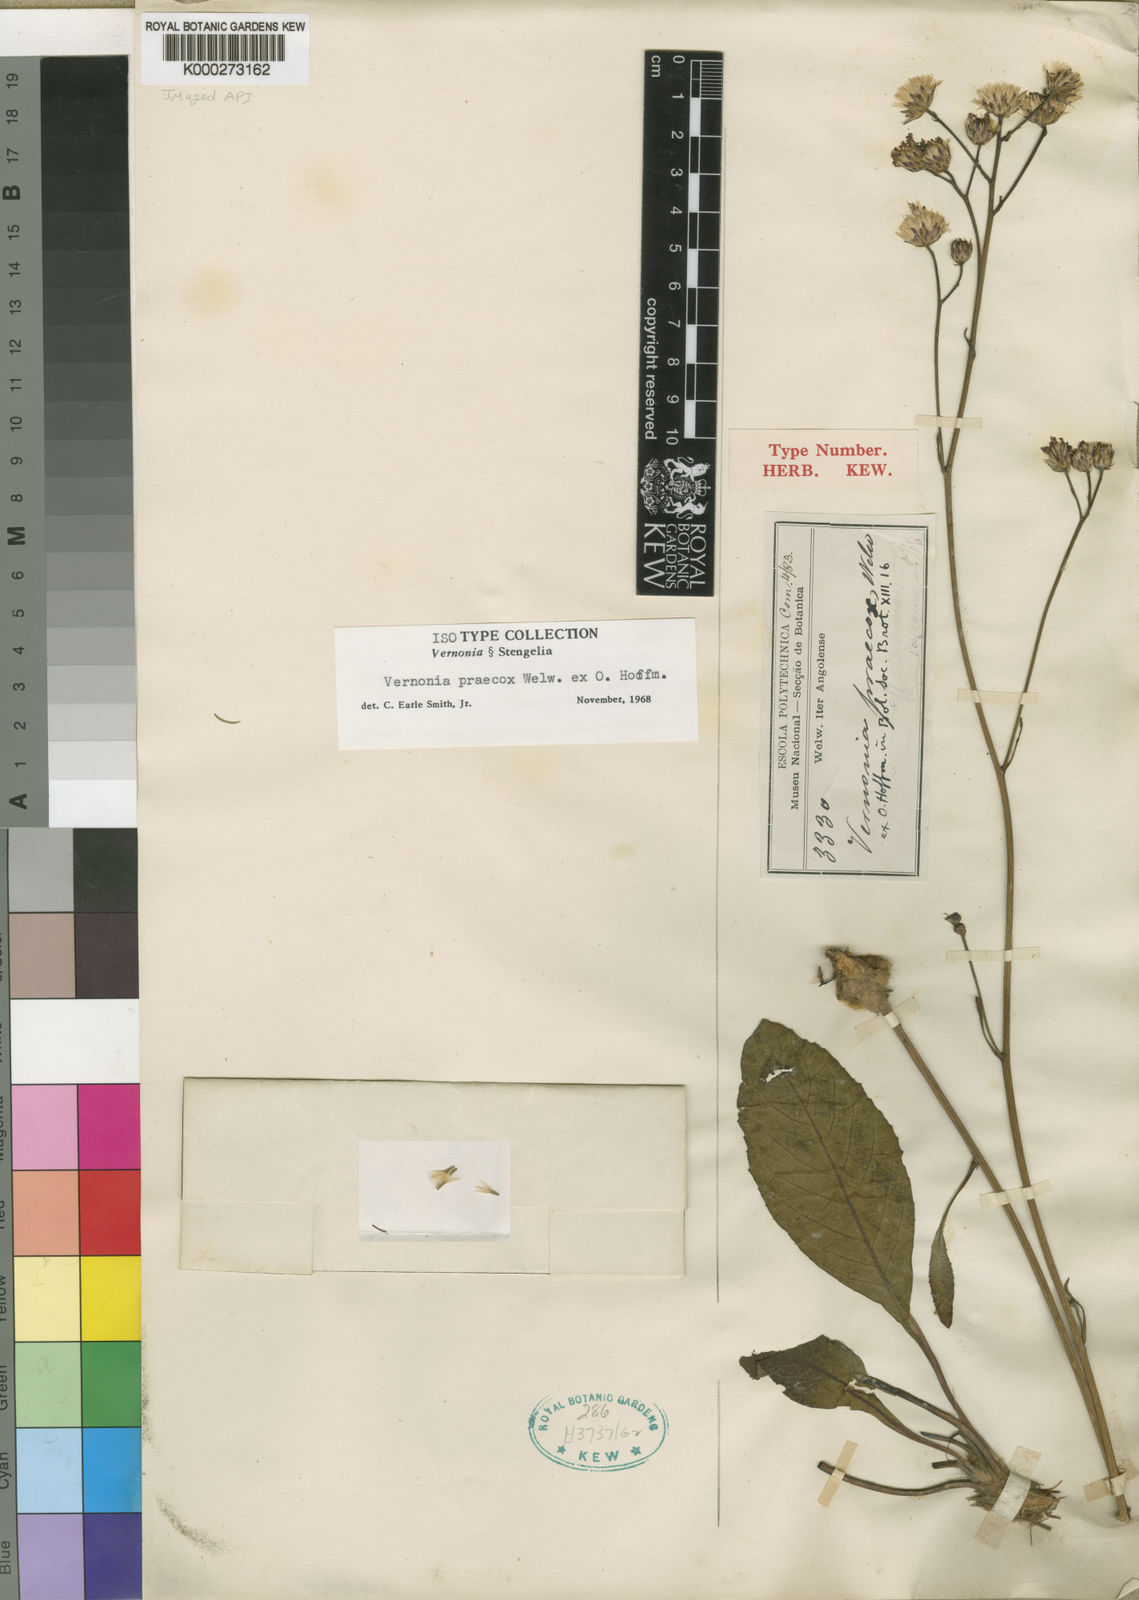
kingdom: Plantae
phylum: Tracheophyta
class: Magnoliopsida
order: Asterales
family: Asteraceae
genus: Vernonella
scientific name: Vernonella praecox
